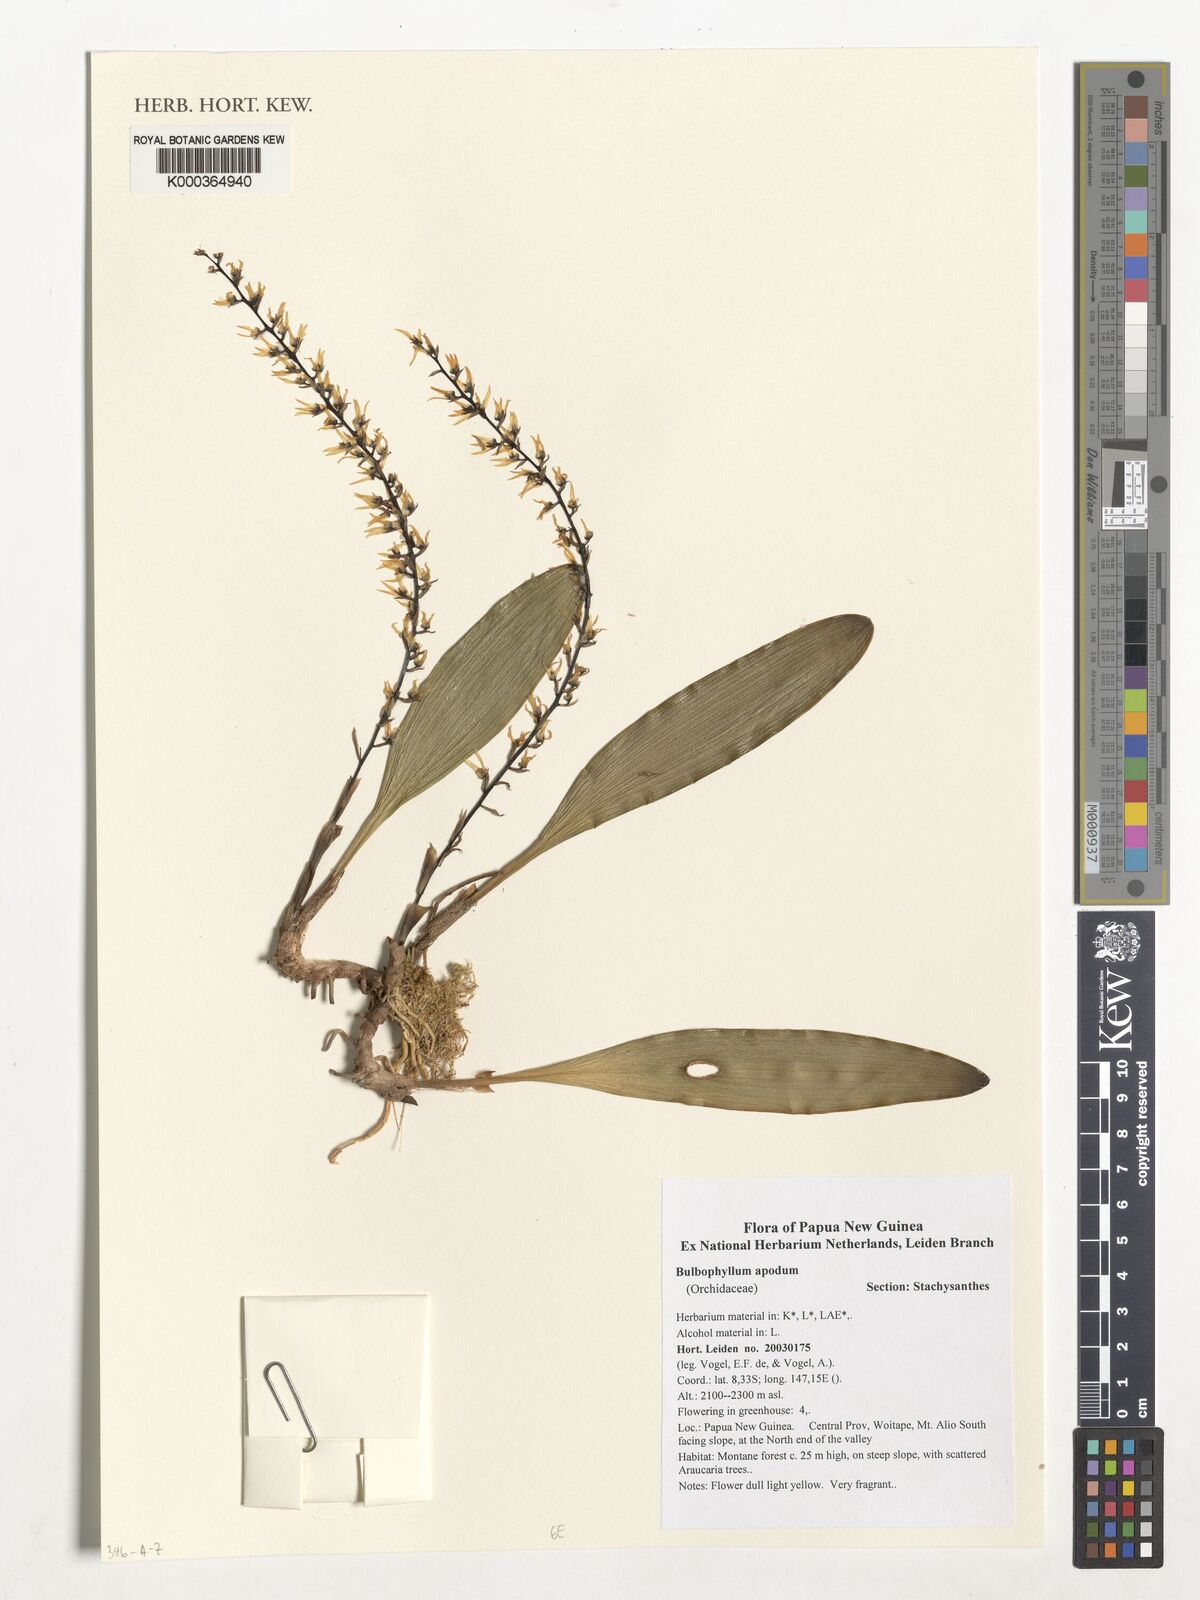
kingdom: Plantae
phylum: Tracheophyta
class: Liliopsida
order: Asparagales
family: Orchidaceae
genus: Bulbophyllum
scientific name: Bulbophyllum apodum
